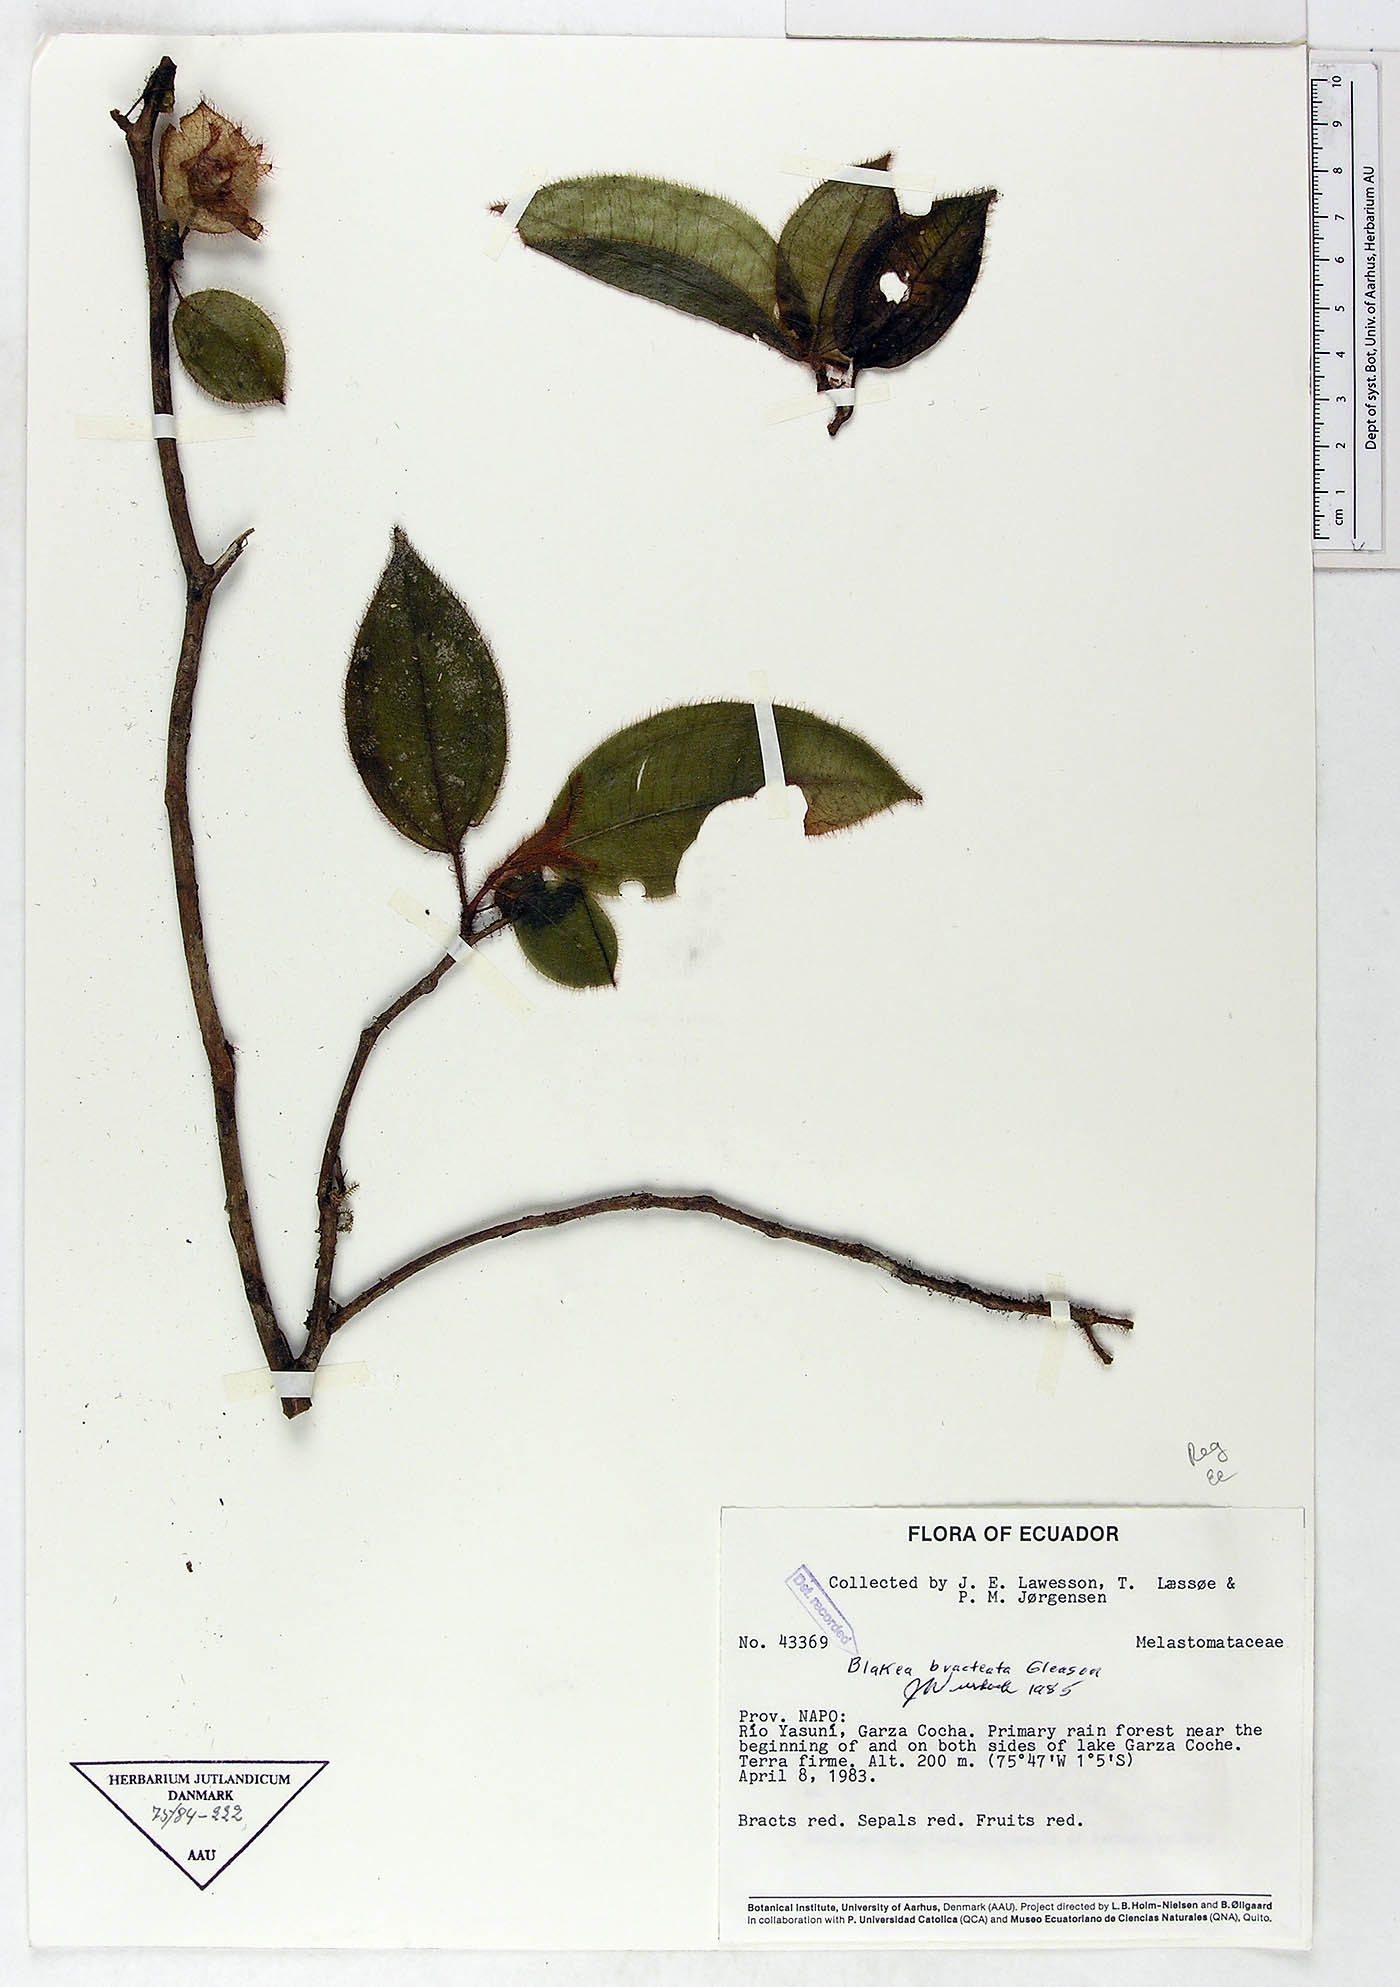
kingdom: Plantae
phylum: Tracheophyta
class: Magnoliopsida
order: Myrtales
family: Melastomataceae
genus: Blakea
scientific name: Blakea bracteata
